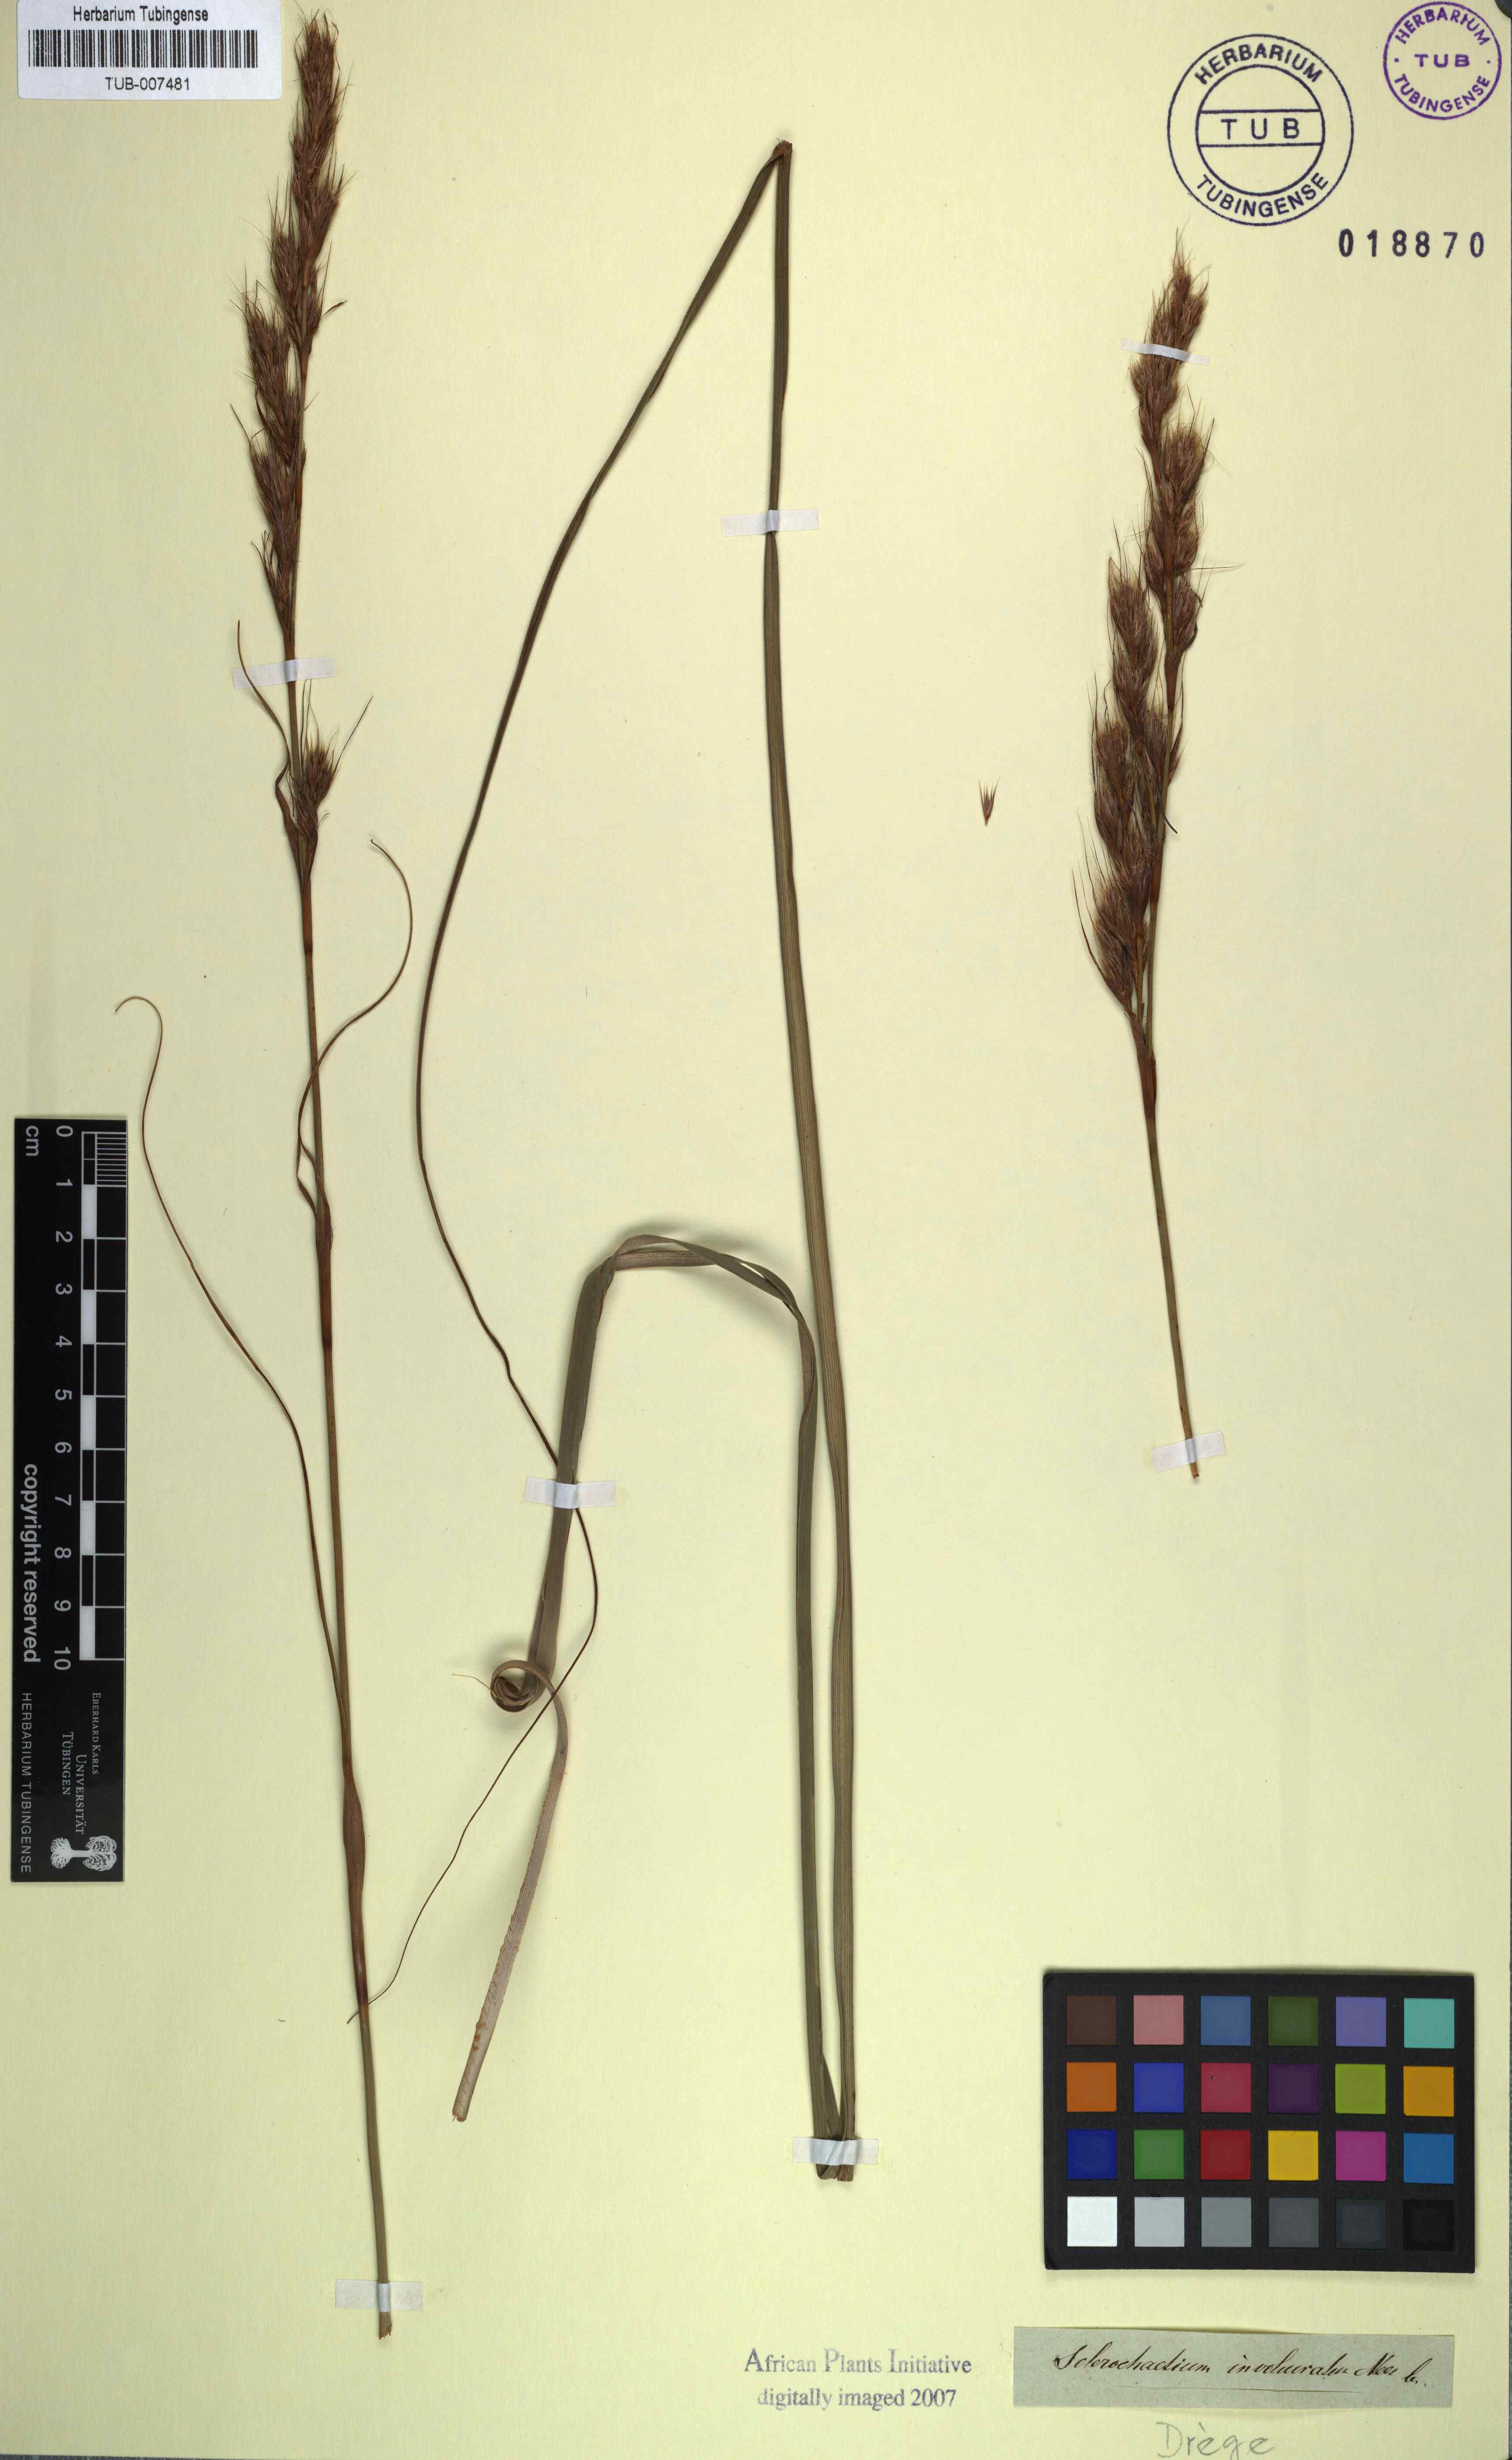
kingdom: Plantae
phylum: Tracheophyta
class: Liliopsida
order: Poales
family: Cyperaceae
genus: Tetraria
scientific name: Tetraria involucrata
